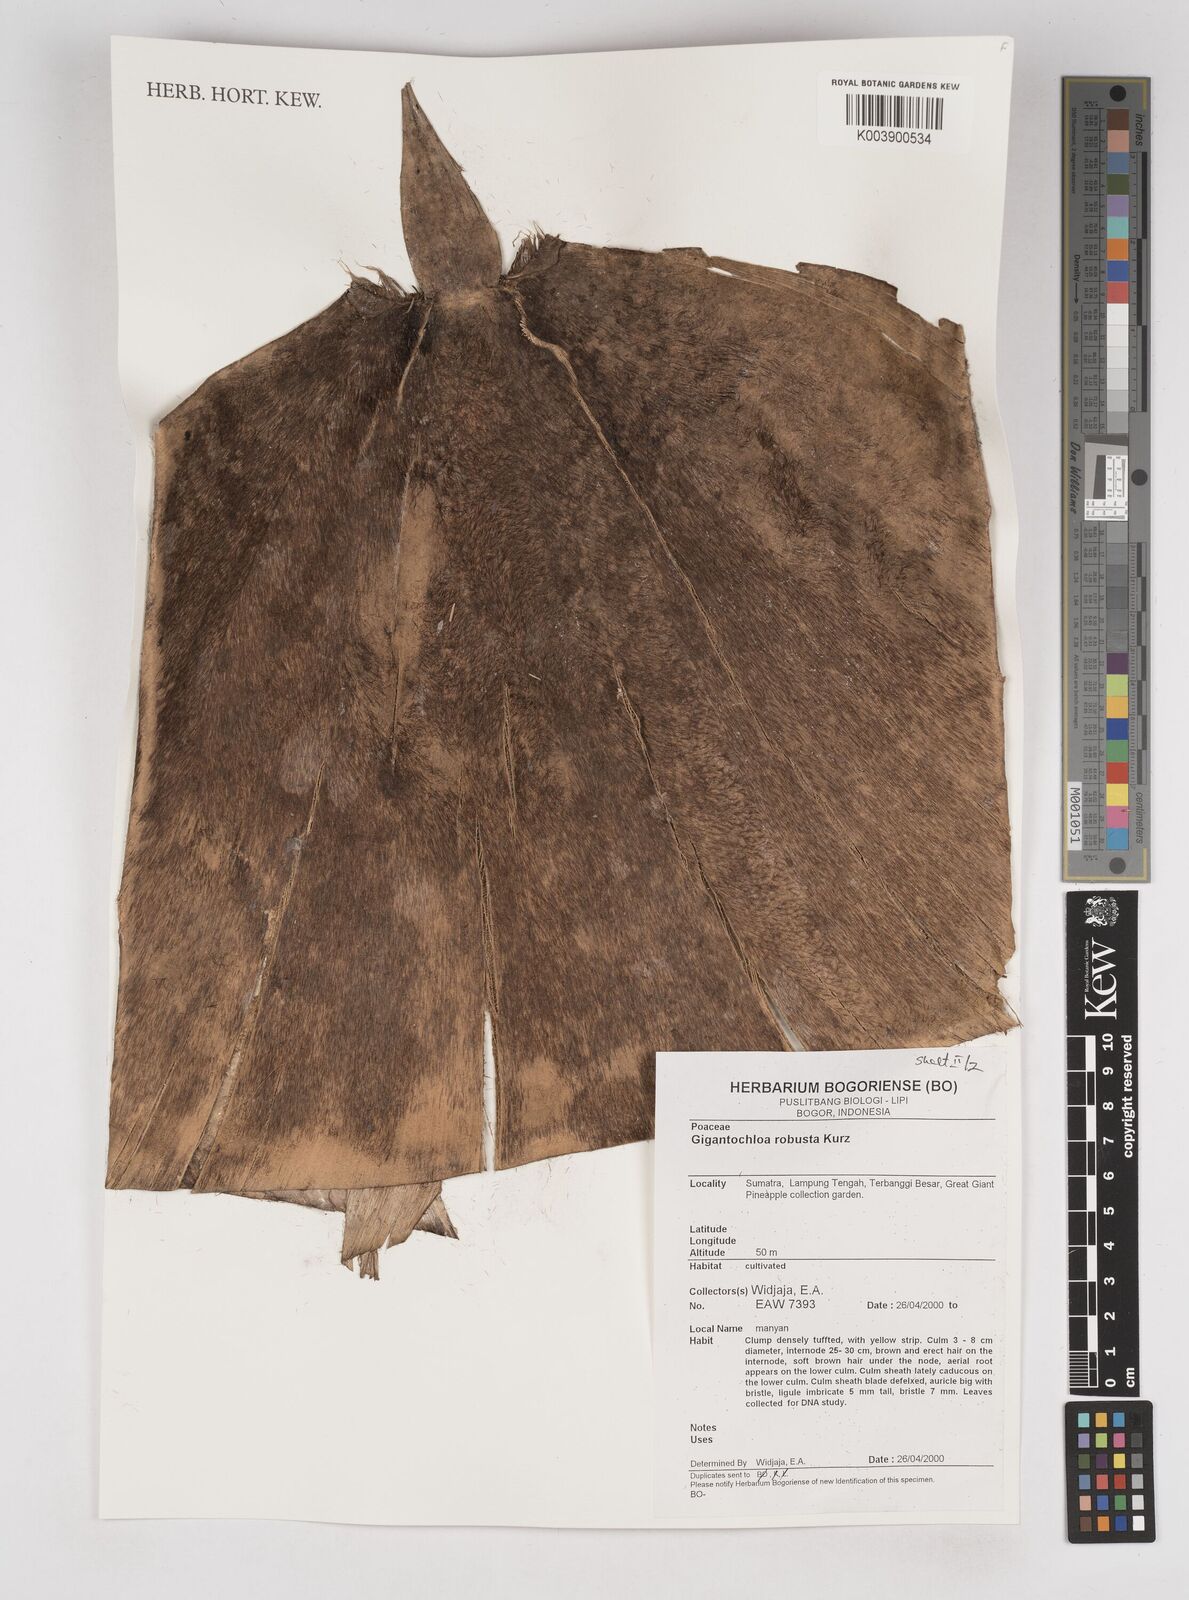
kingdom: Plantae
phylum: Tracheophyta
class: Liliopsida
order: Poales
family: Poaceae
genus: Gigantochloa
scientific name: Gigantochloa robusta
